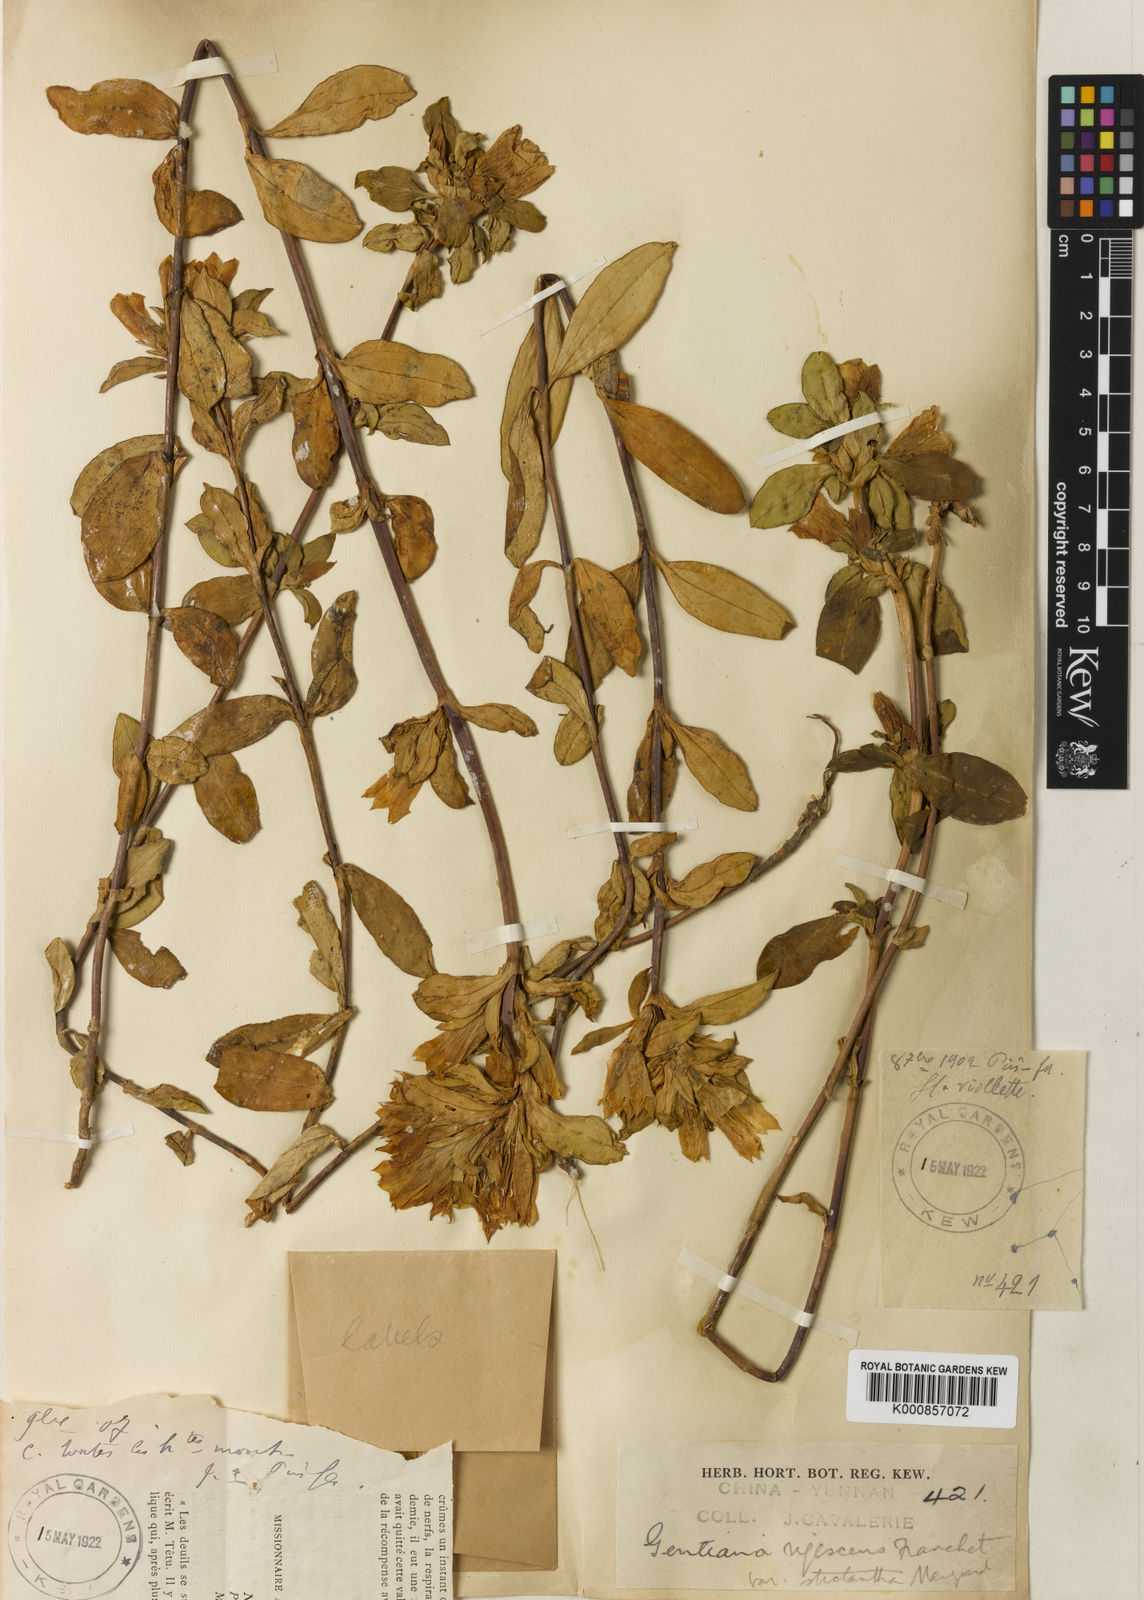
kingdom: Plantae
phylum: Tracheophyta
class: Magnoliopsida
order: Gentianales
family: Gentianaceae
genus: Gentiana
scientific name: Gentiana crassa
